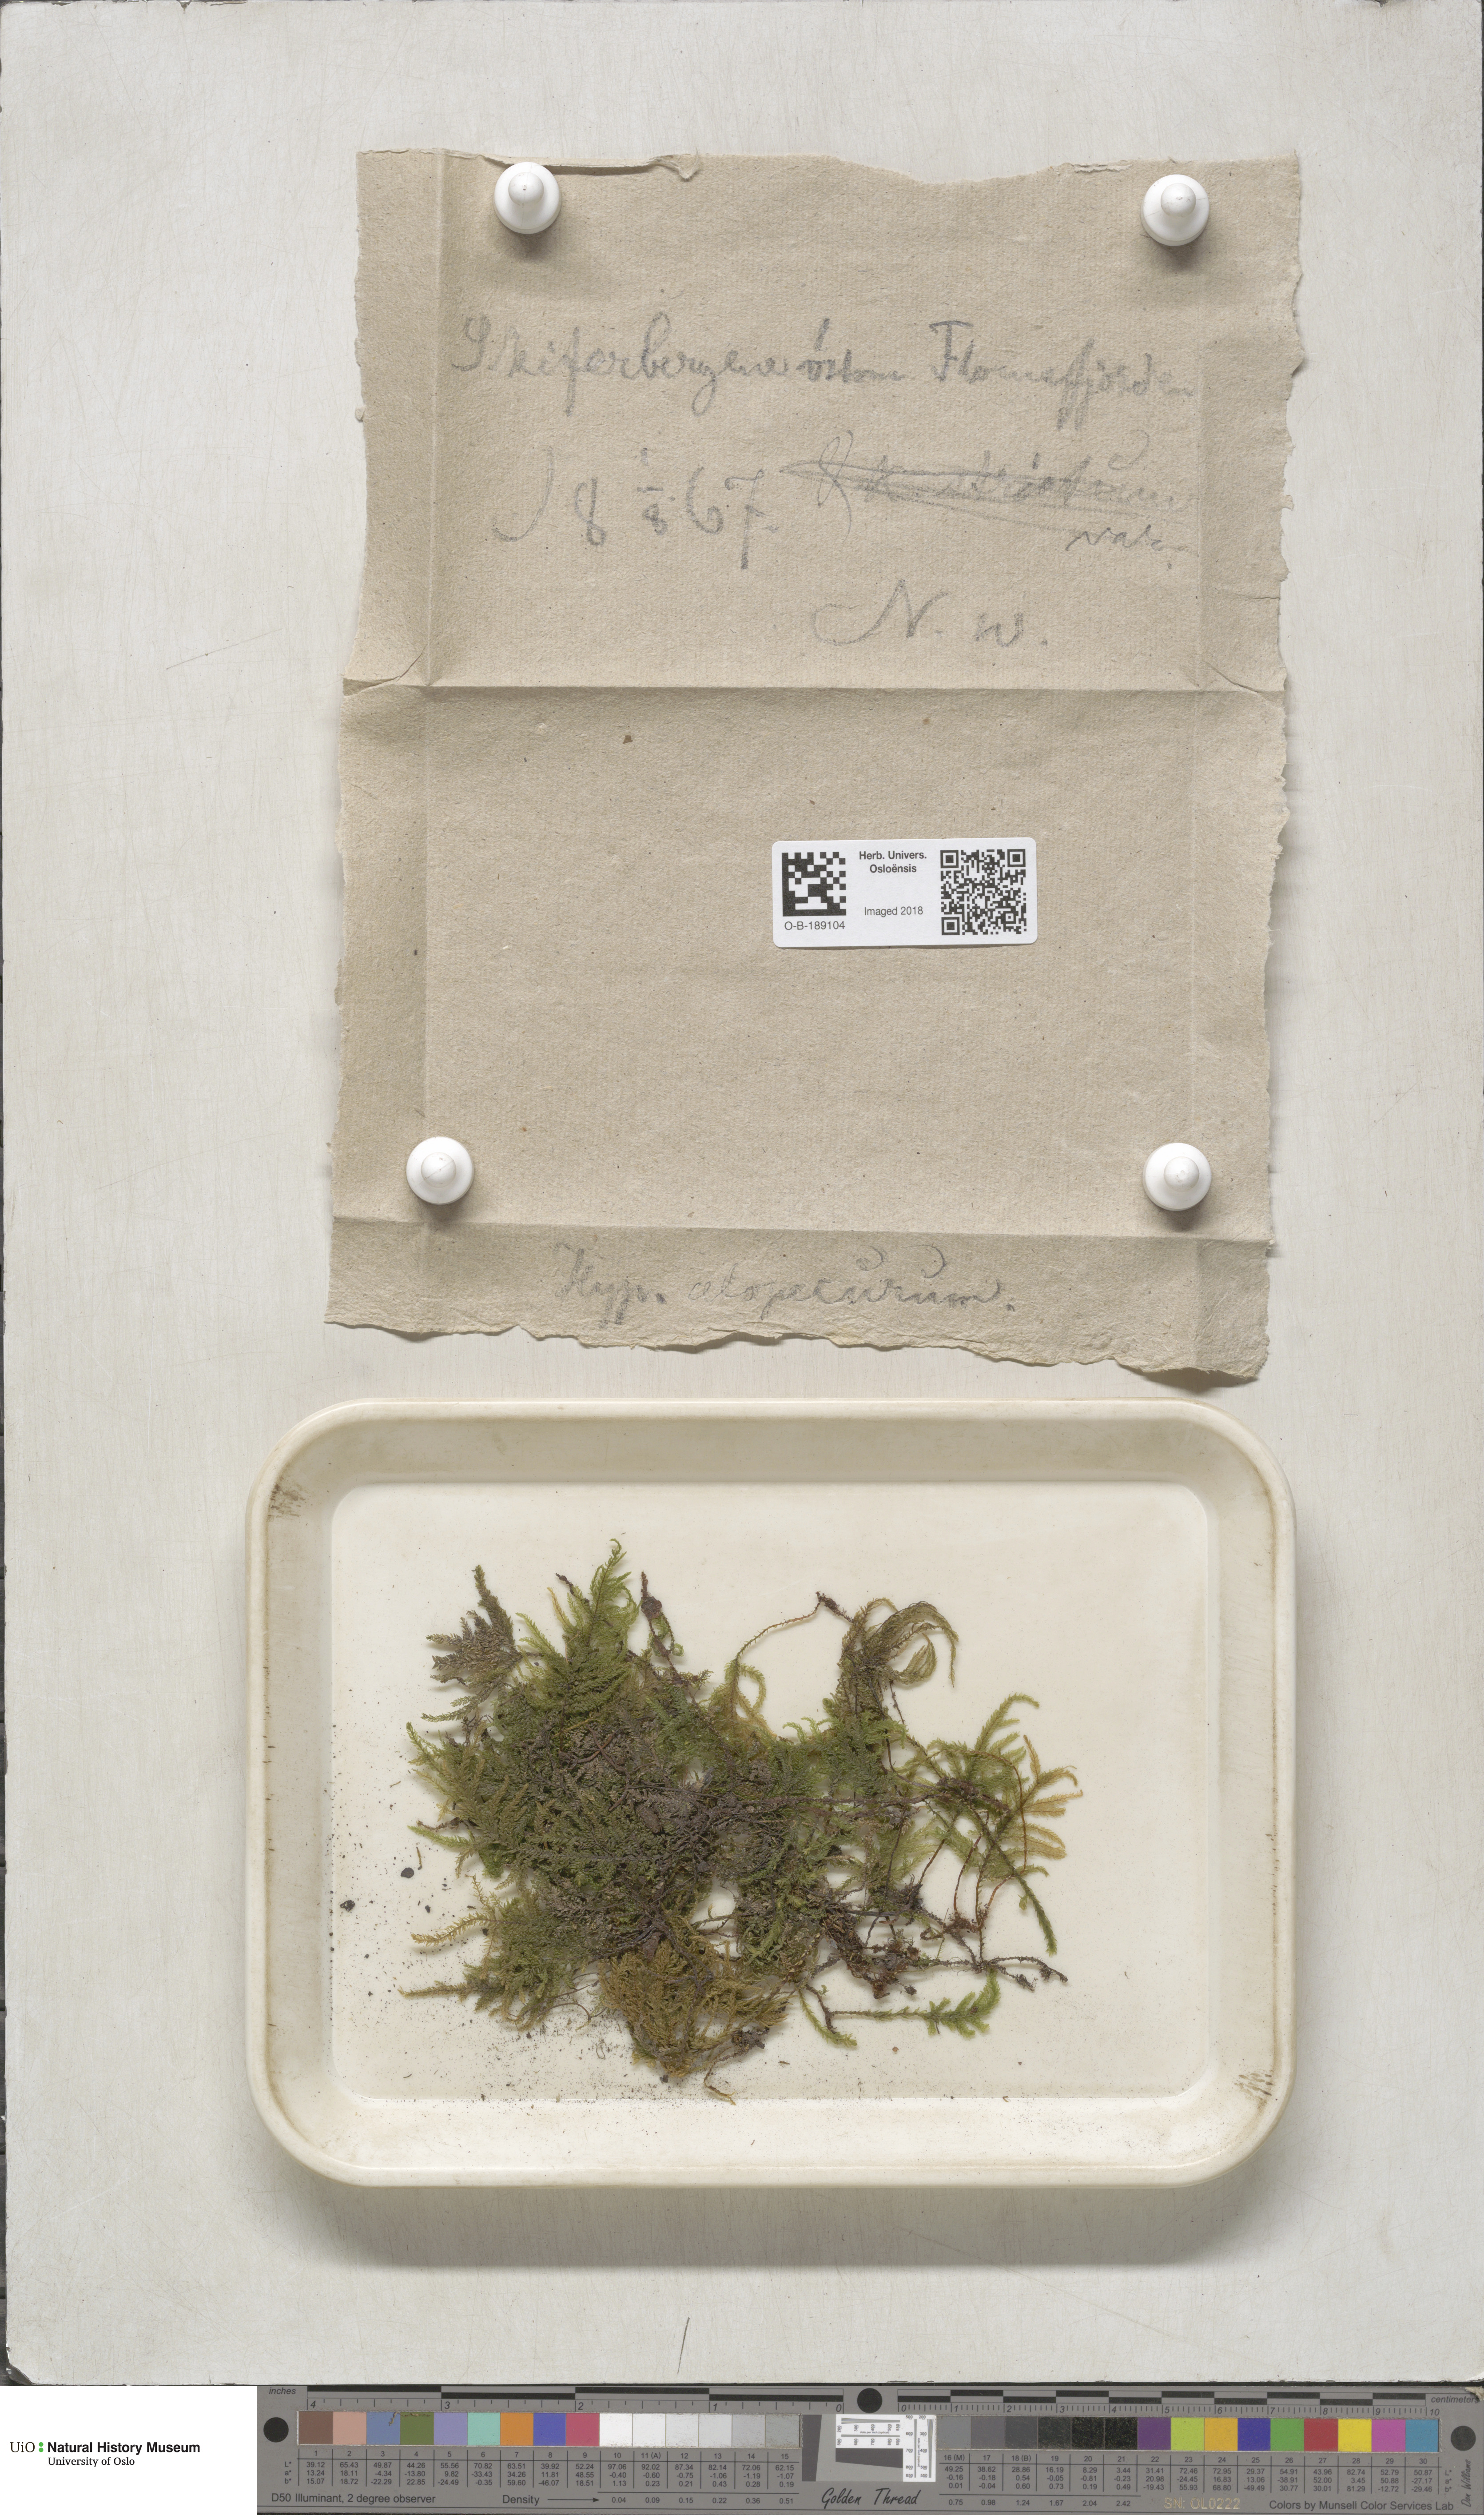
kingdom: Plantae
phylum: Bryophyta
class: Bryopsida
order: Hypnales
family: Neckeraceae
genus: Thamnobryum
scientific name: Thamnobryum alopecurum
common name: Fox-tail feather-moss
